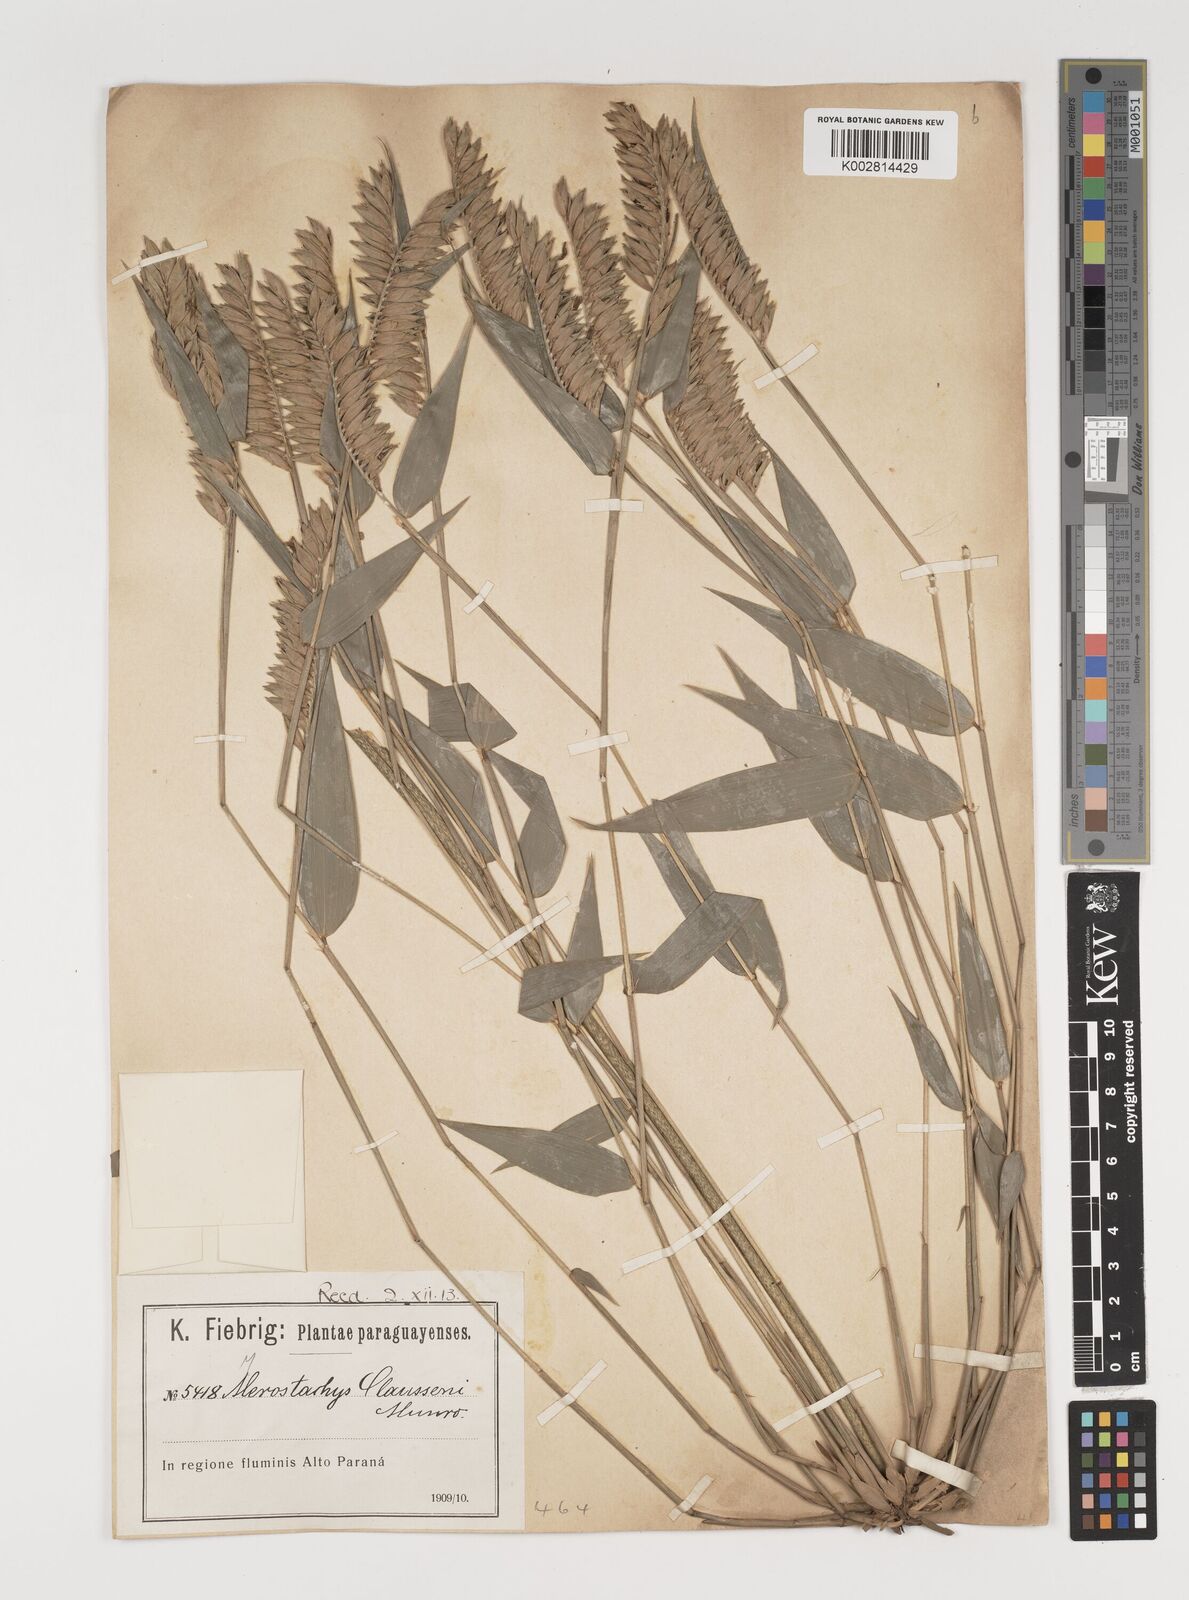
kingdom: Plantae
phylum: Tracheophyta
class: Liliopsida
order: Poales
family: Poaceae
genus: Merostachys
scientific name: Merostachys multiramea
